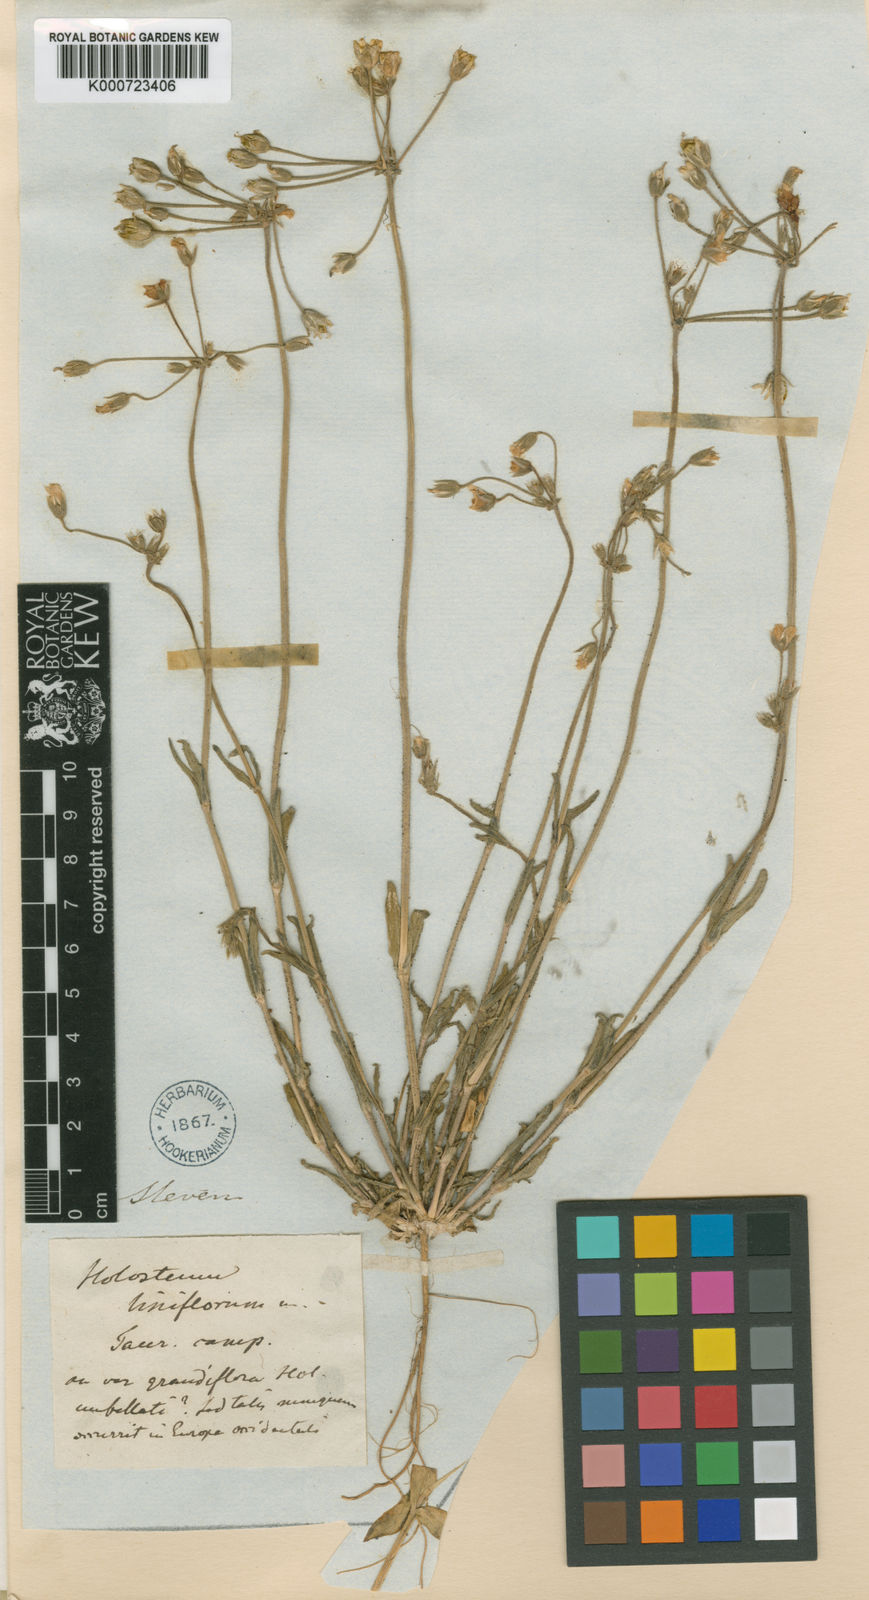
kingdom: Plantae
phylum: Tracheophyta
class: Magnoliopsida
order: Caryophyllales
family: Caryophyllaceae
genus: Holosteum
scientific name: Holosteum
